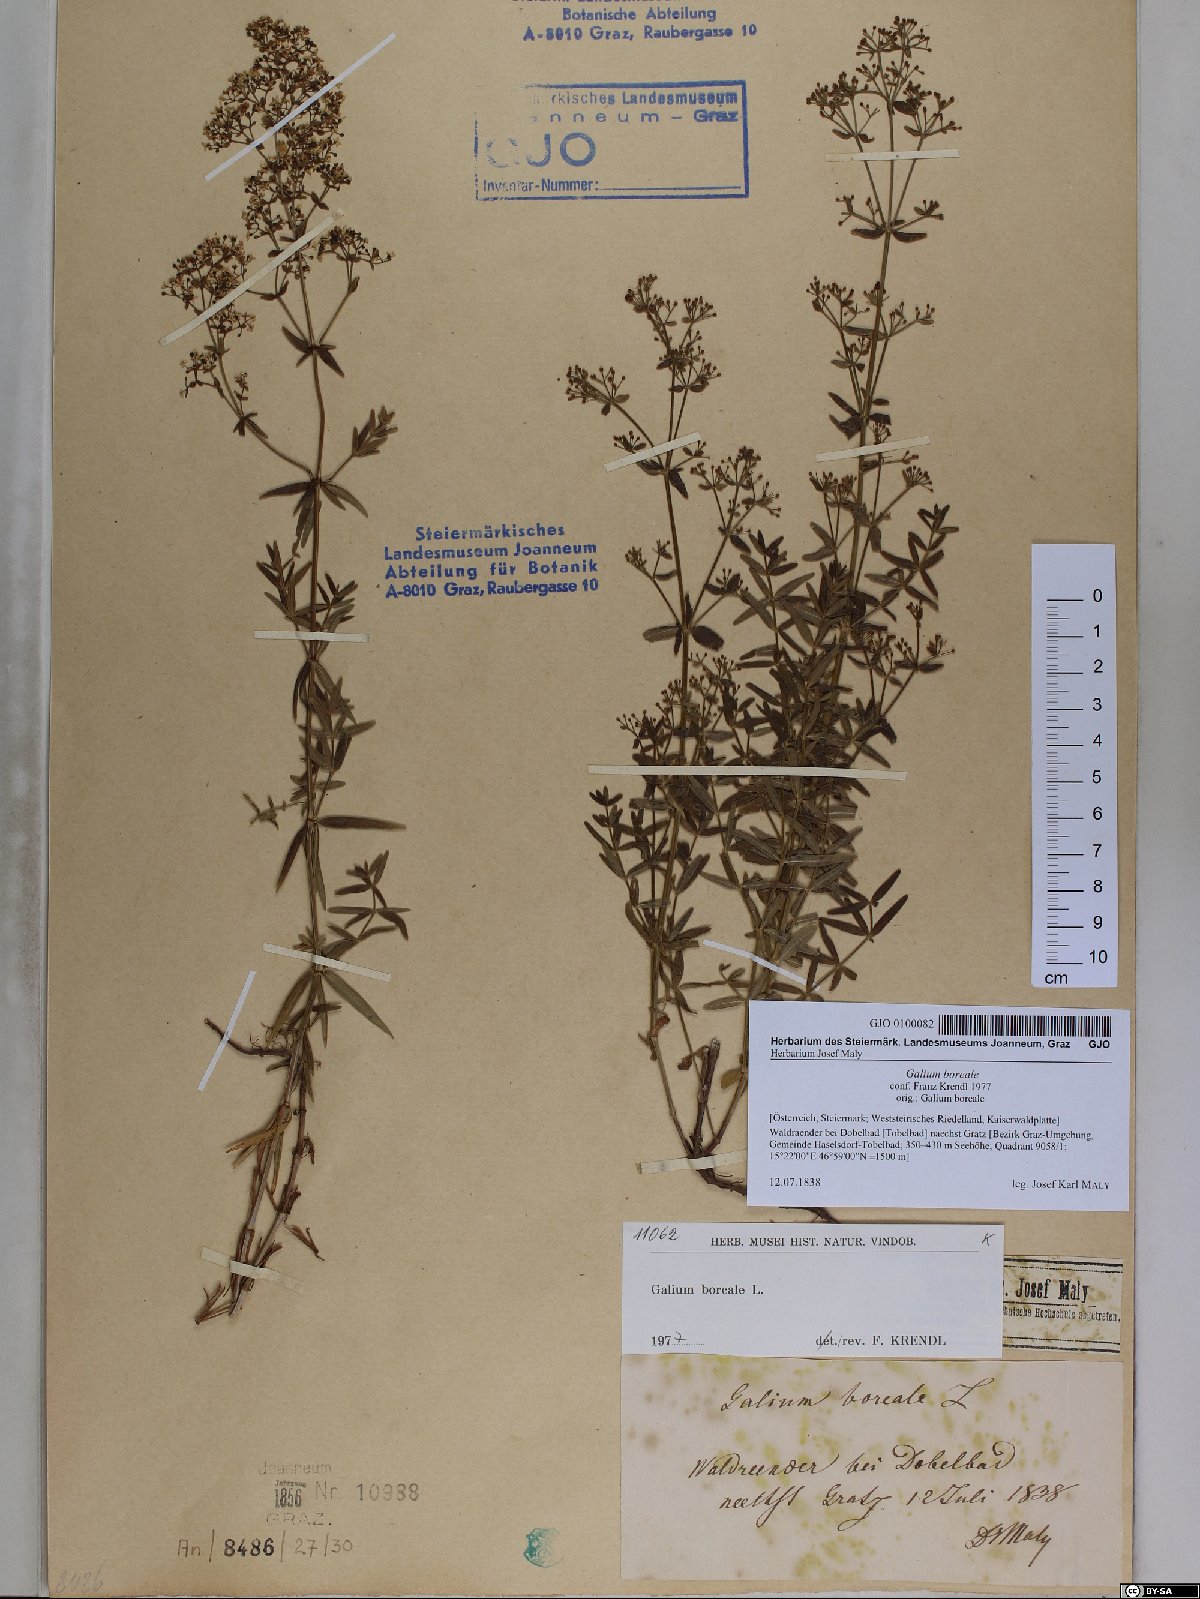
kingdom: Plantae
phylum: Tracheophyta
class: Magnoliopsida
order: Gentianales
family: Rubiaceae
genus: Galium
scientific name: Galium boreale
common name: Northern bedstraw
